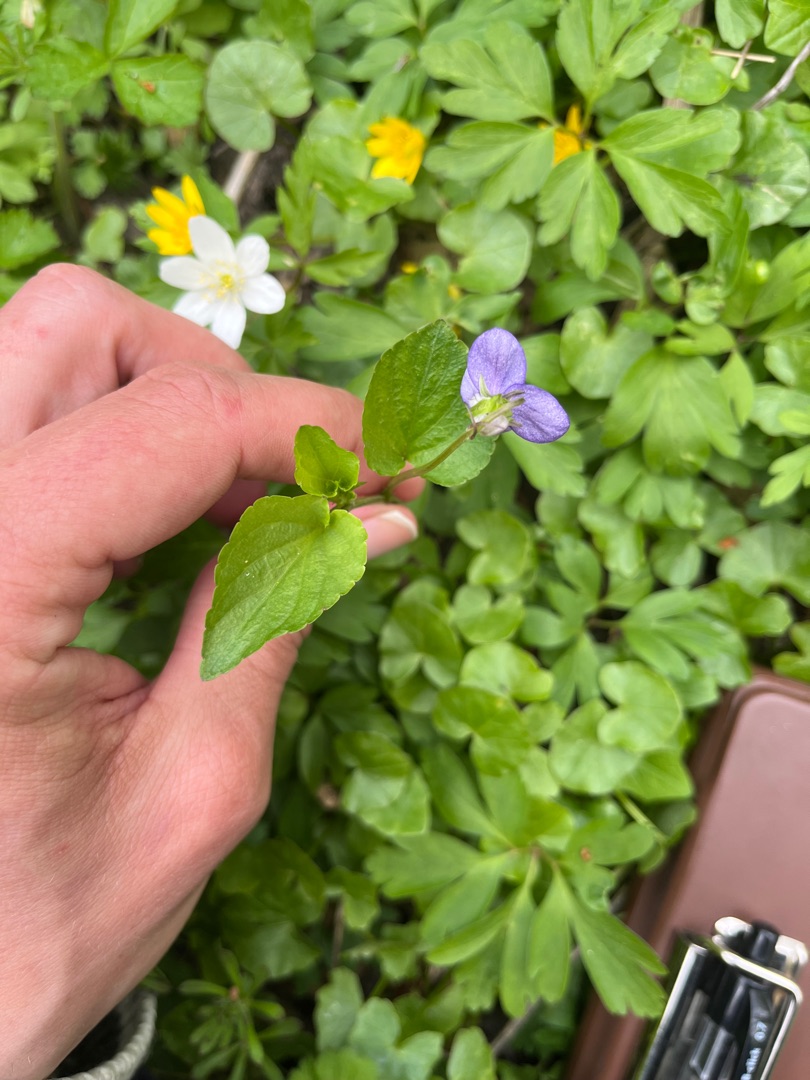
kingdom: Plantae
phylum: Tracheophyta
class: Magnoliopsida
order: Malpighiales
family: Violaceae
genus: Viola
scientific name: Viola riviniana
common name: Krat-viol
